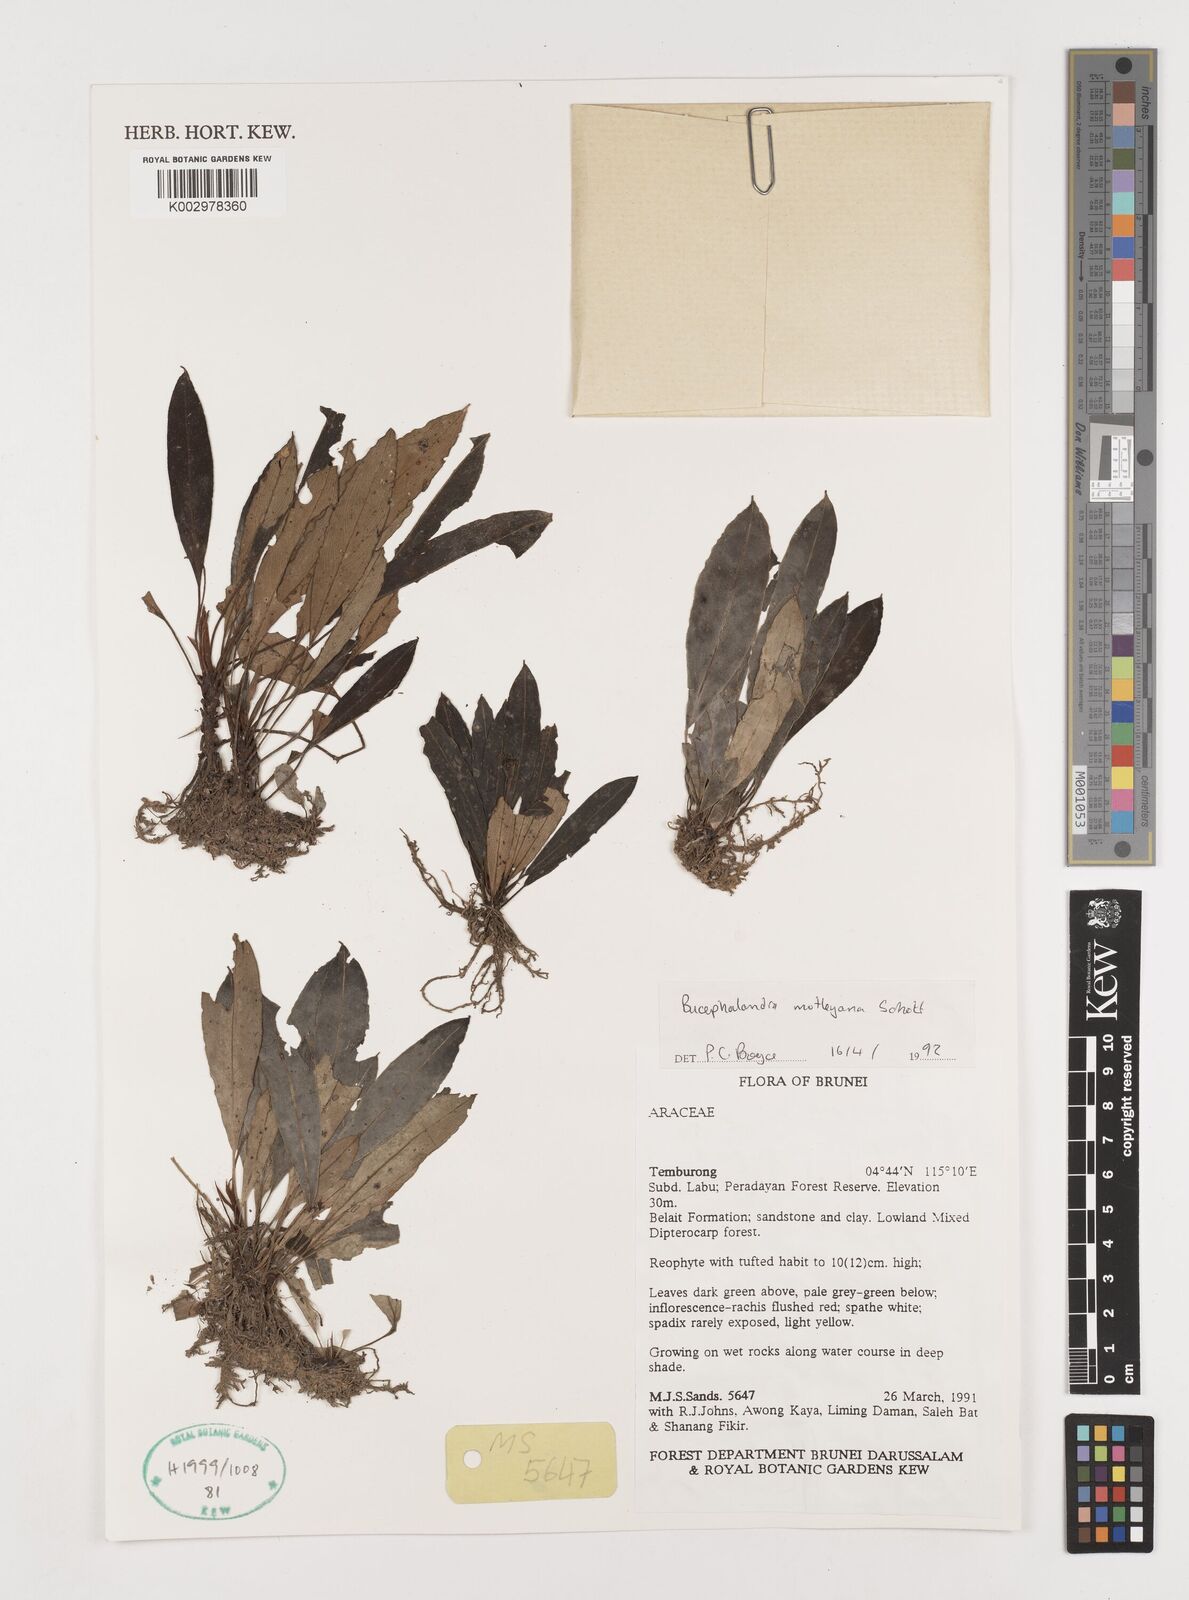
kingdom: Plantae
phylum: Tracheophyta
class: Liliopsida
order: Alismatales
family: Araceae
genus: Bucephalandra
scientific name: Bucephalandra motleyana
